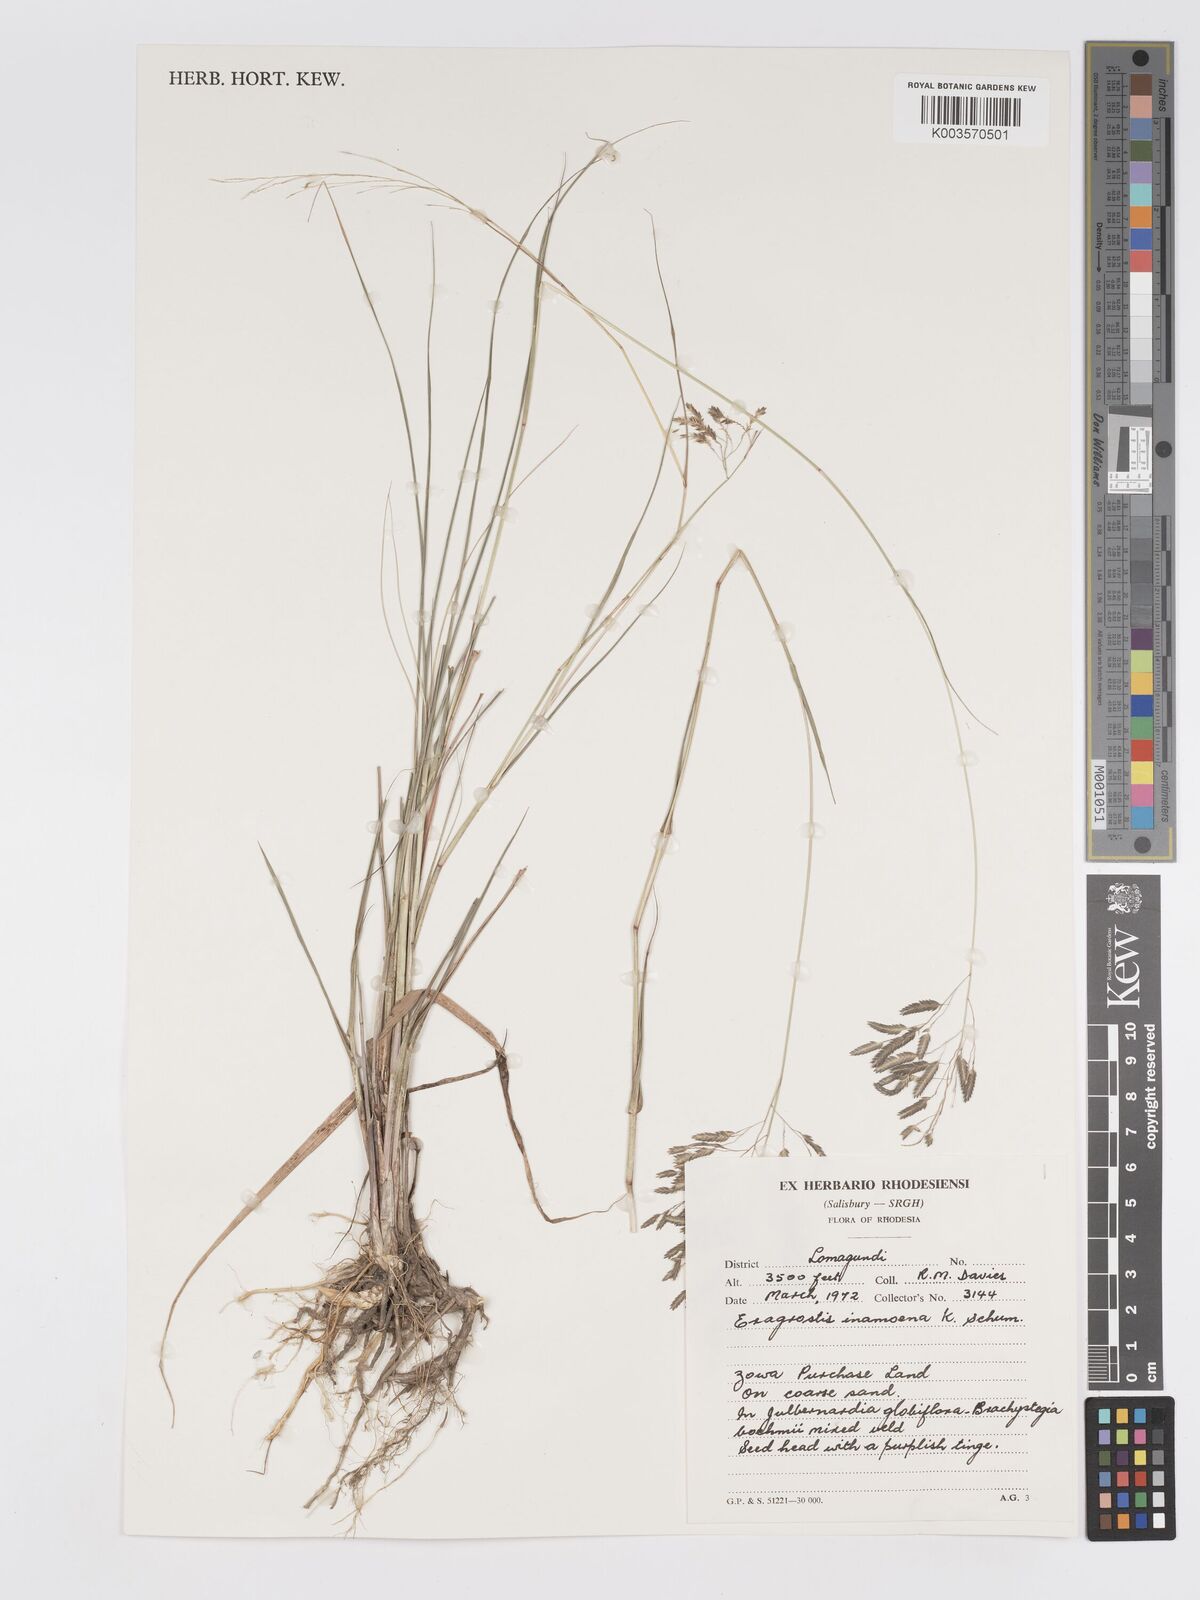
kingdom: Plantae
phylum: Tracheophyta
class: Liliopsida
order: Poales
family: Poaceae
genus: Eragrostis
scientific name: Eragrostis inamoena
